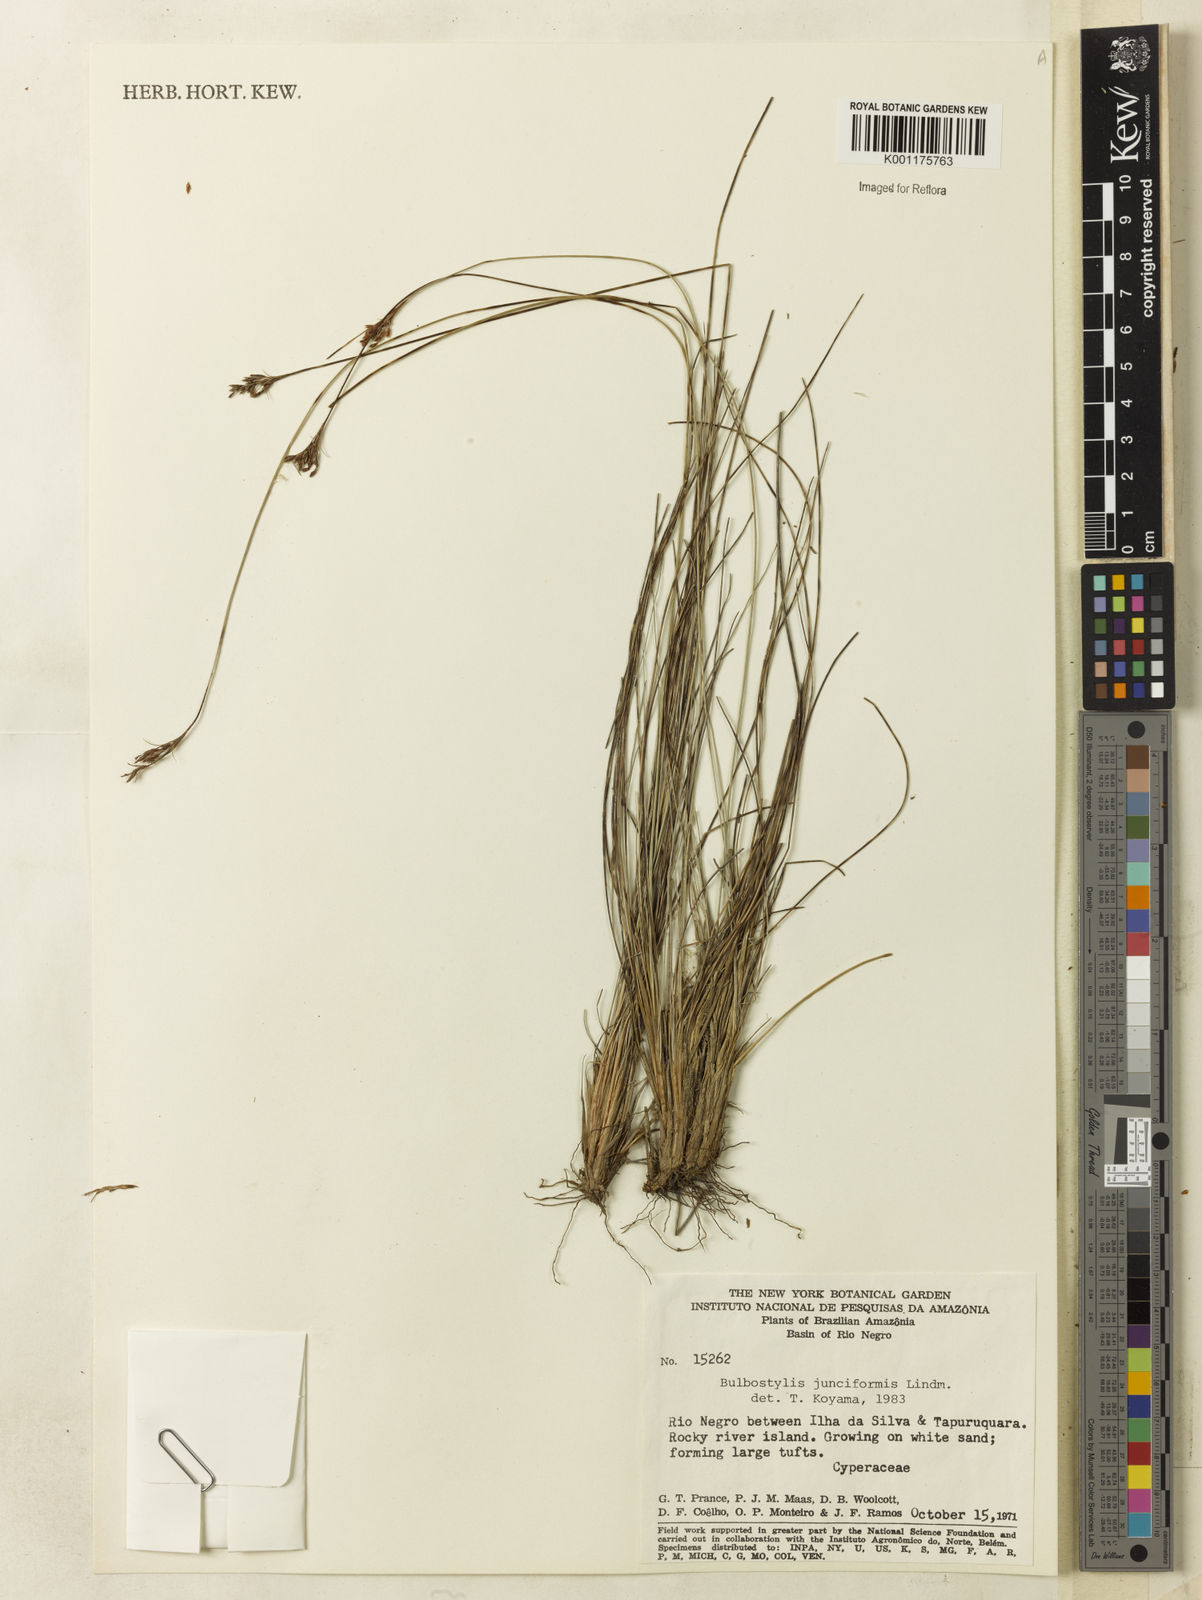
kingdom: Plantae
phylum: Tracheophyta
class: Liliopsida
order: Poales
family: Cyperaceae
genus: Bulbostylis
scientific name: Bulbostylis junciformis
